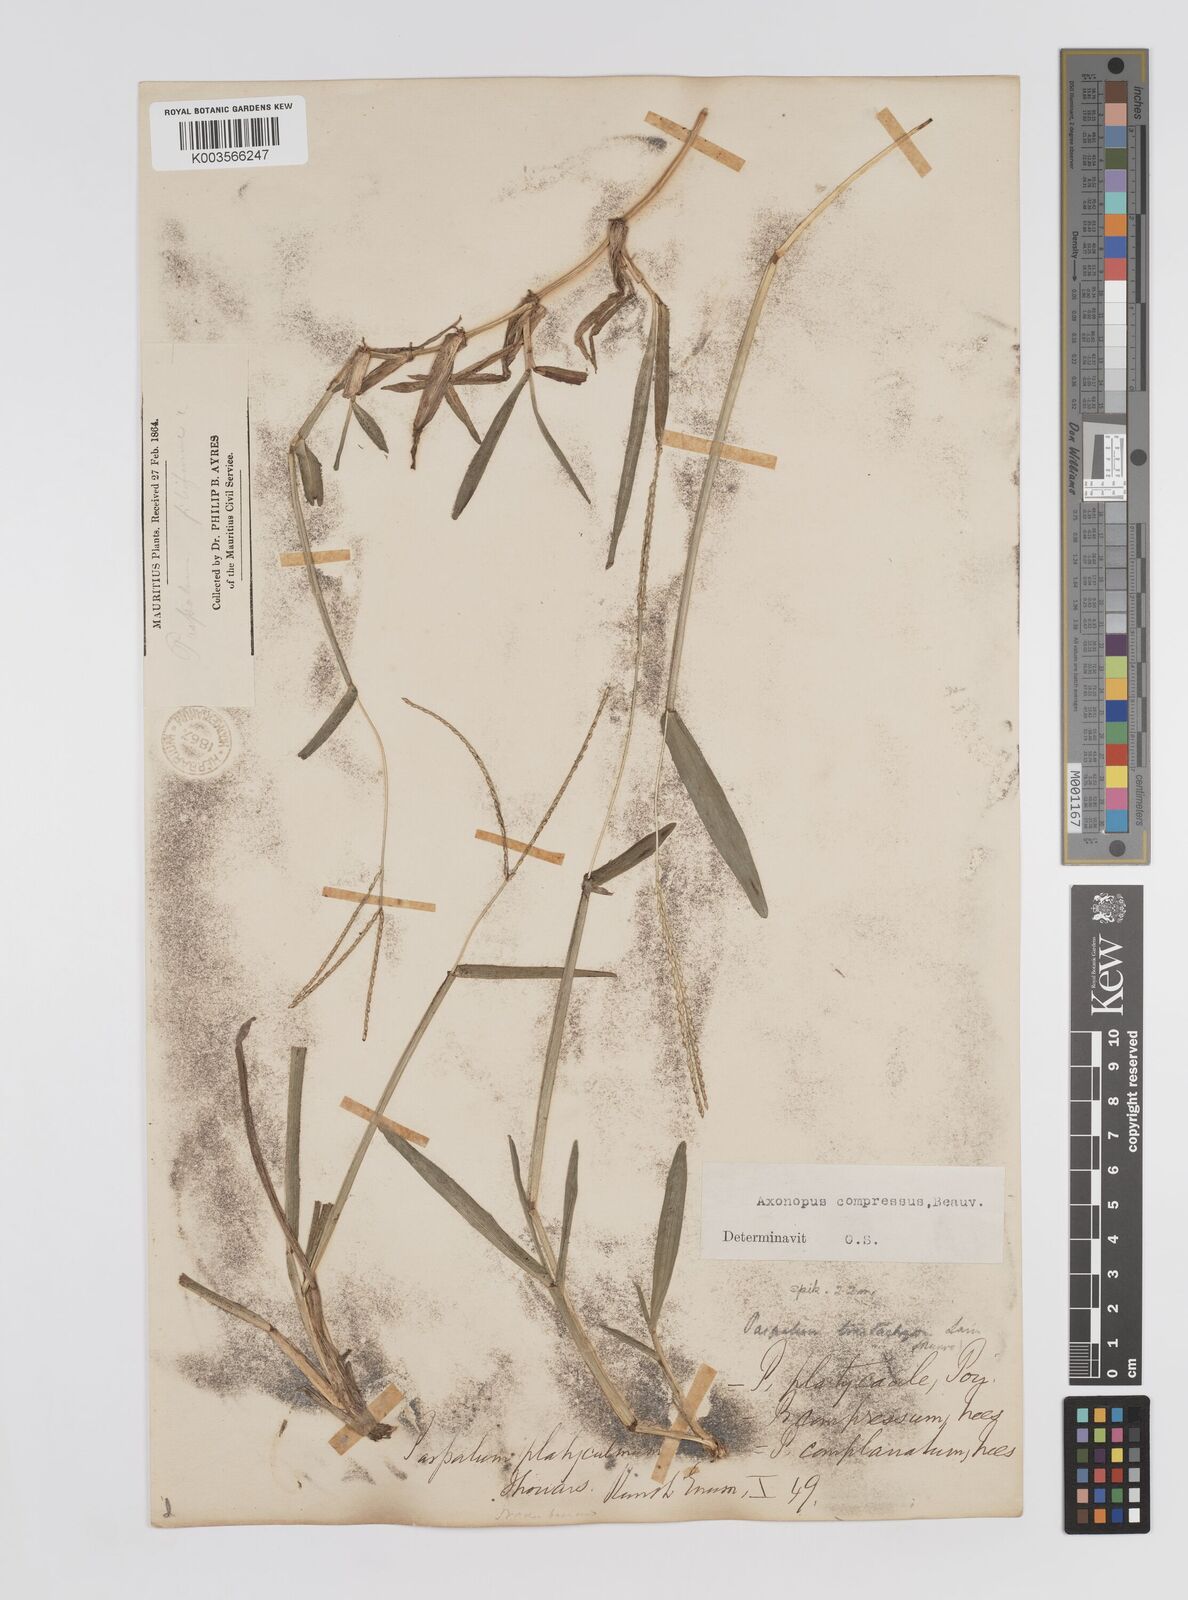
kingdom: Plantae
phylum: Tracheophyta
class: Liliopsida
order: Poales
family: Poaceae
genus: Axonopus
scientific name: Axonopus compressus
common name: American carpet grass
